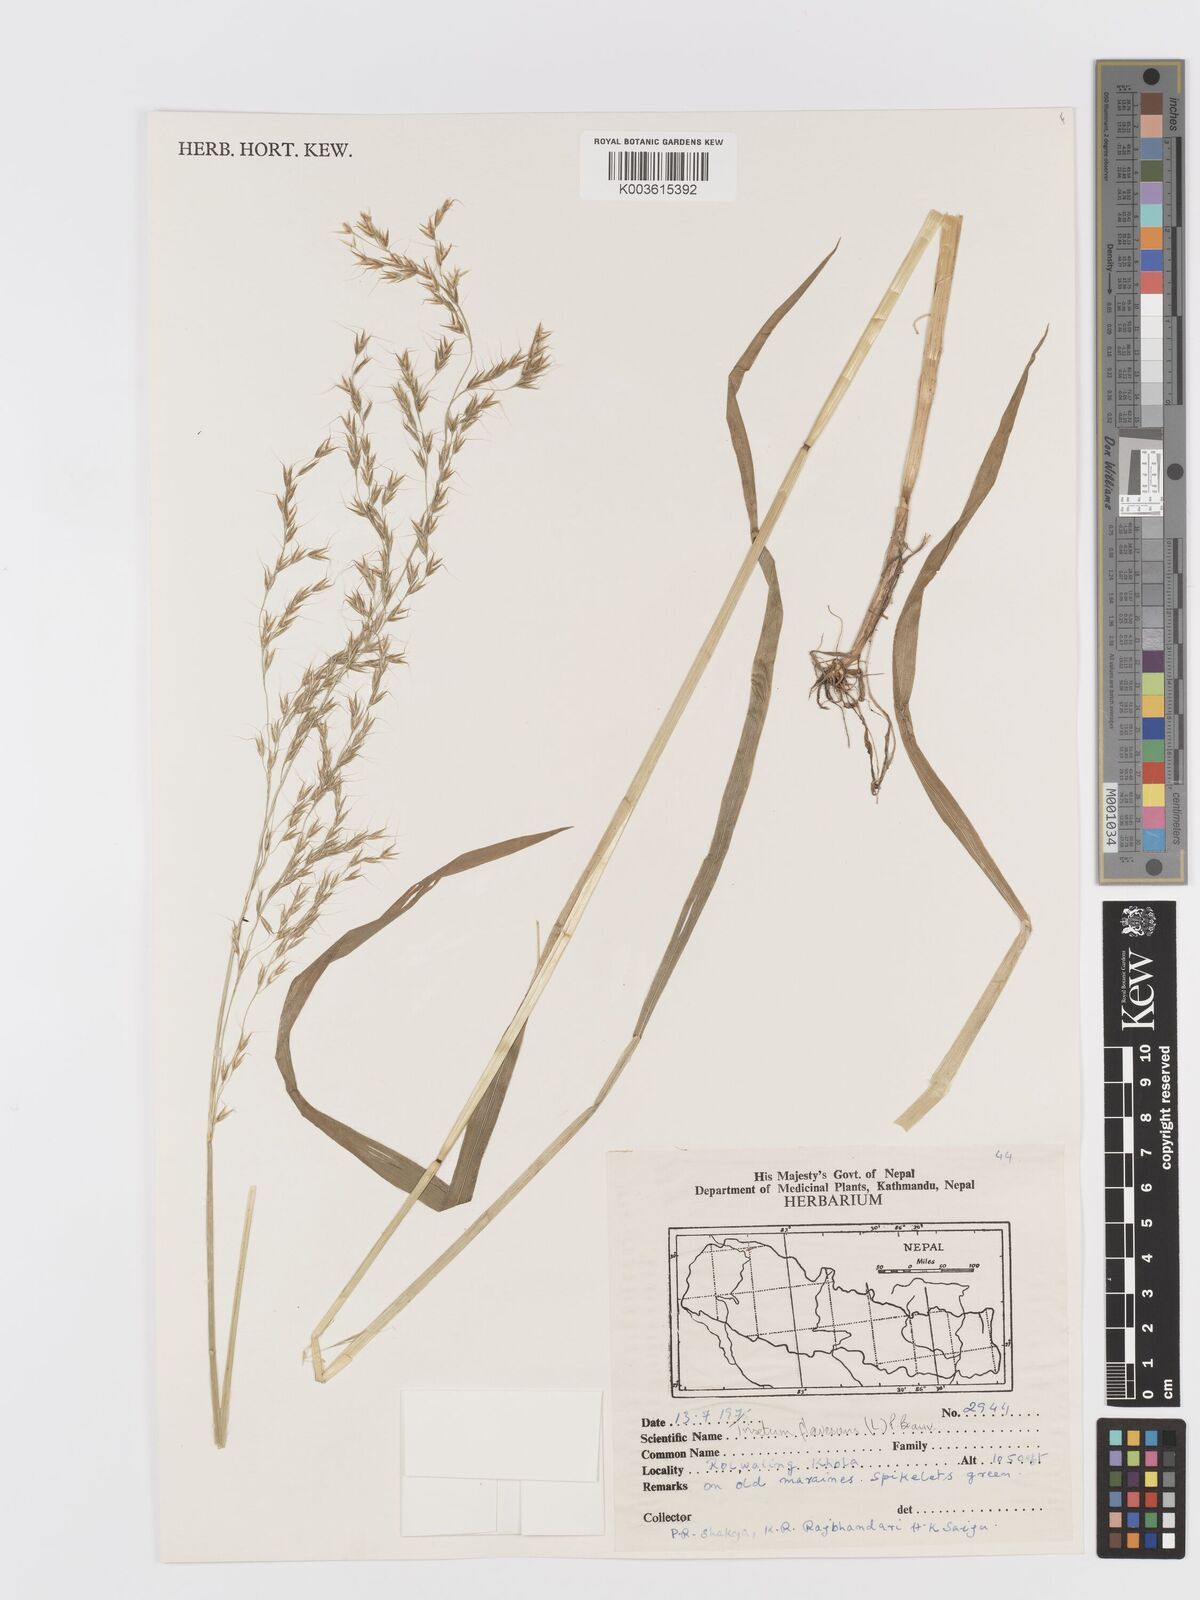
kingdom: Plantae
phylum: Tracheophyta
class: Liliopsida
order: Poales
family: Poaceae
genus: Trisetum
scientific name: Trisetum flavescens
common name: Yellow oat-grass
